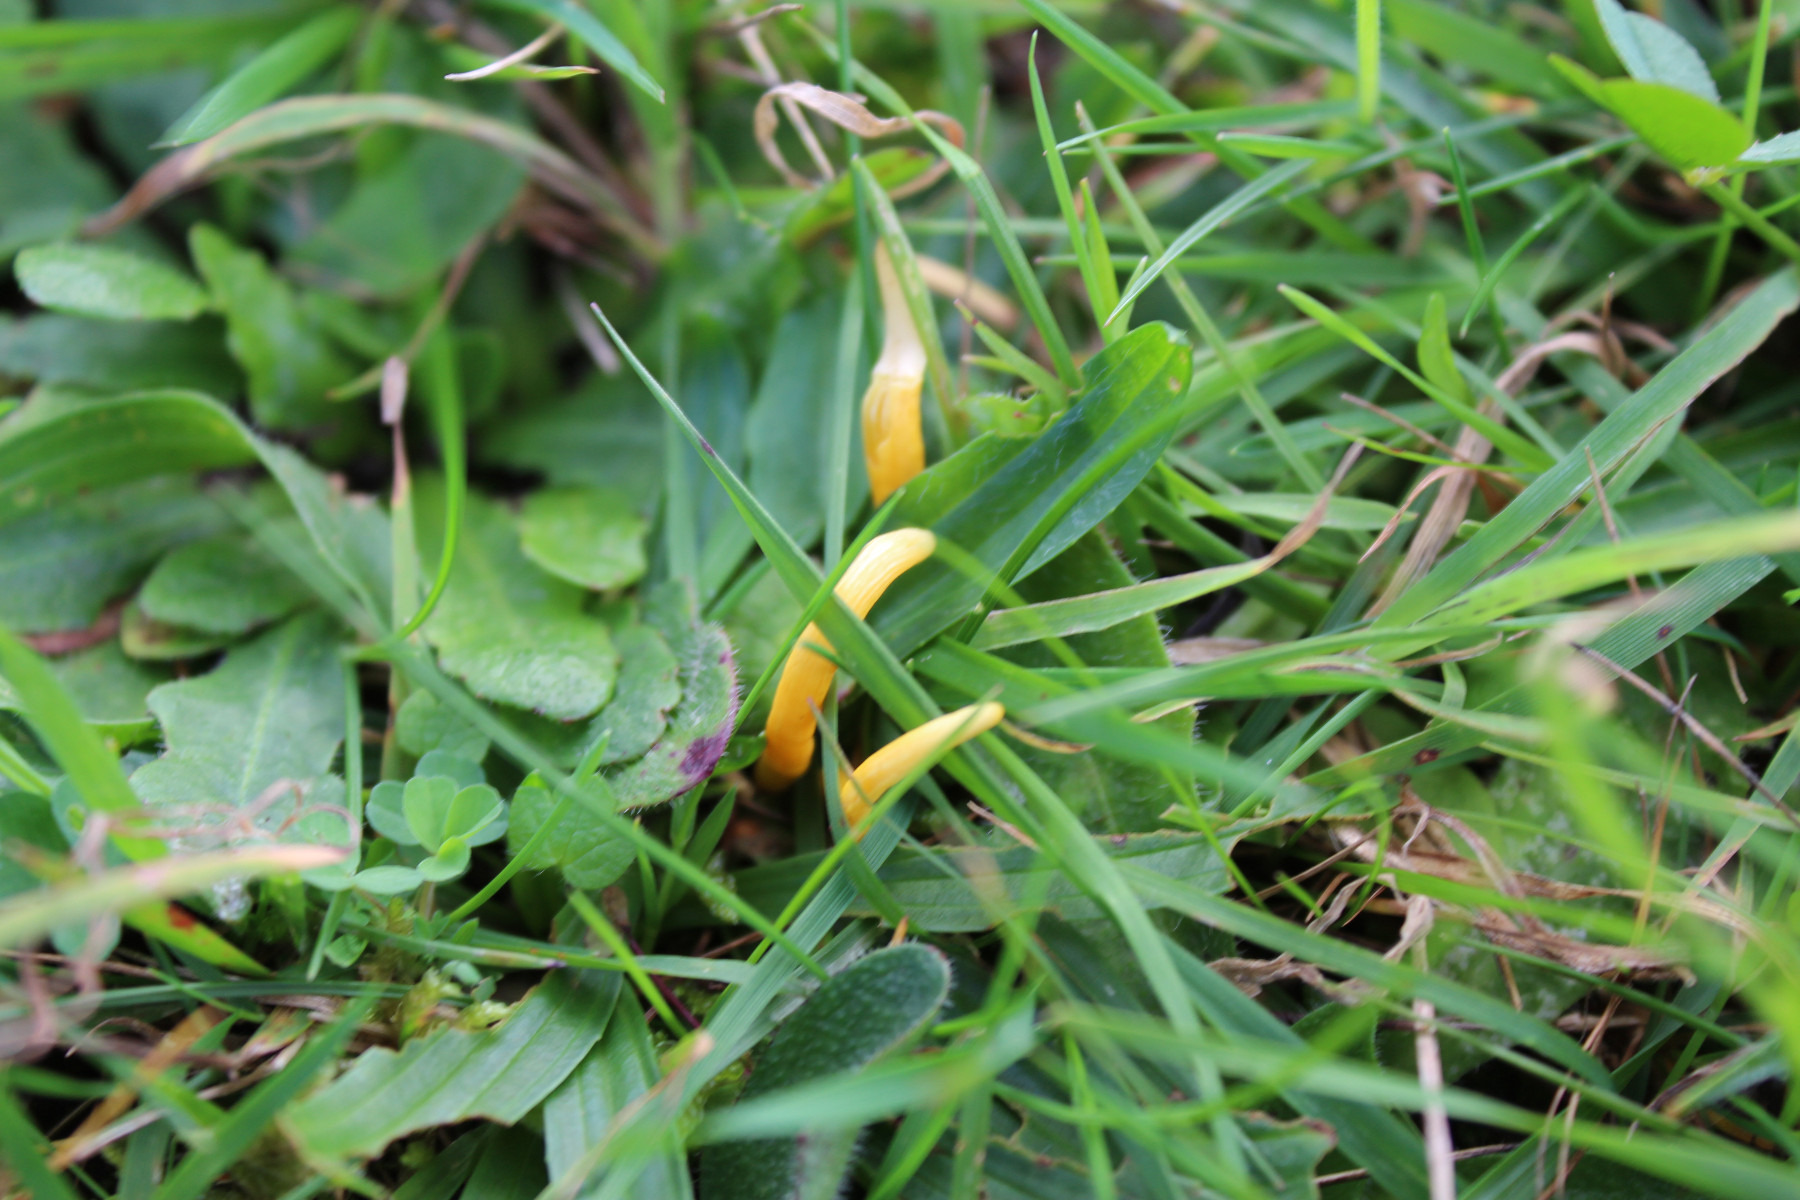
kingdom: Fungi
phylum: Basidiomycota
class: Agaricomycetes
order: Agaricales
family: Clavariaceae
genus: Clavulinopsis
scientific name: Clavulinopsis laeticolor
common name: flamme-køllesvamp
